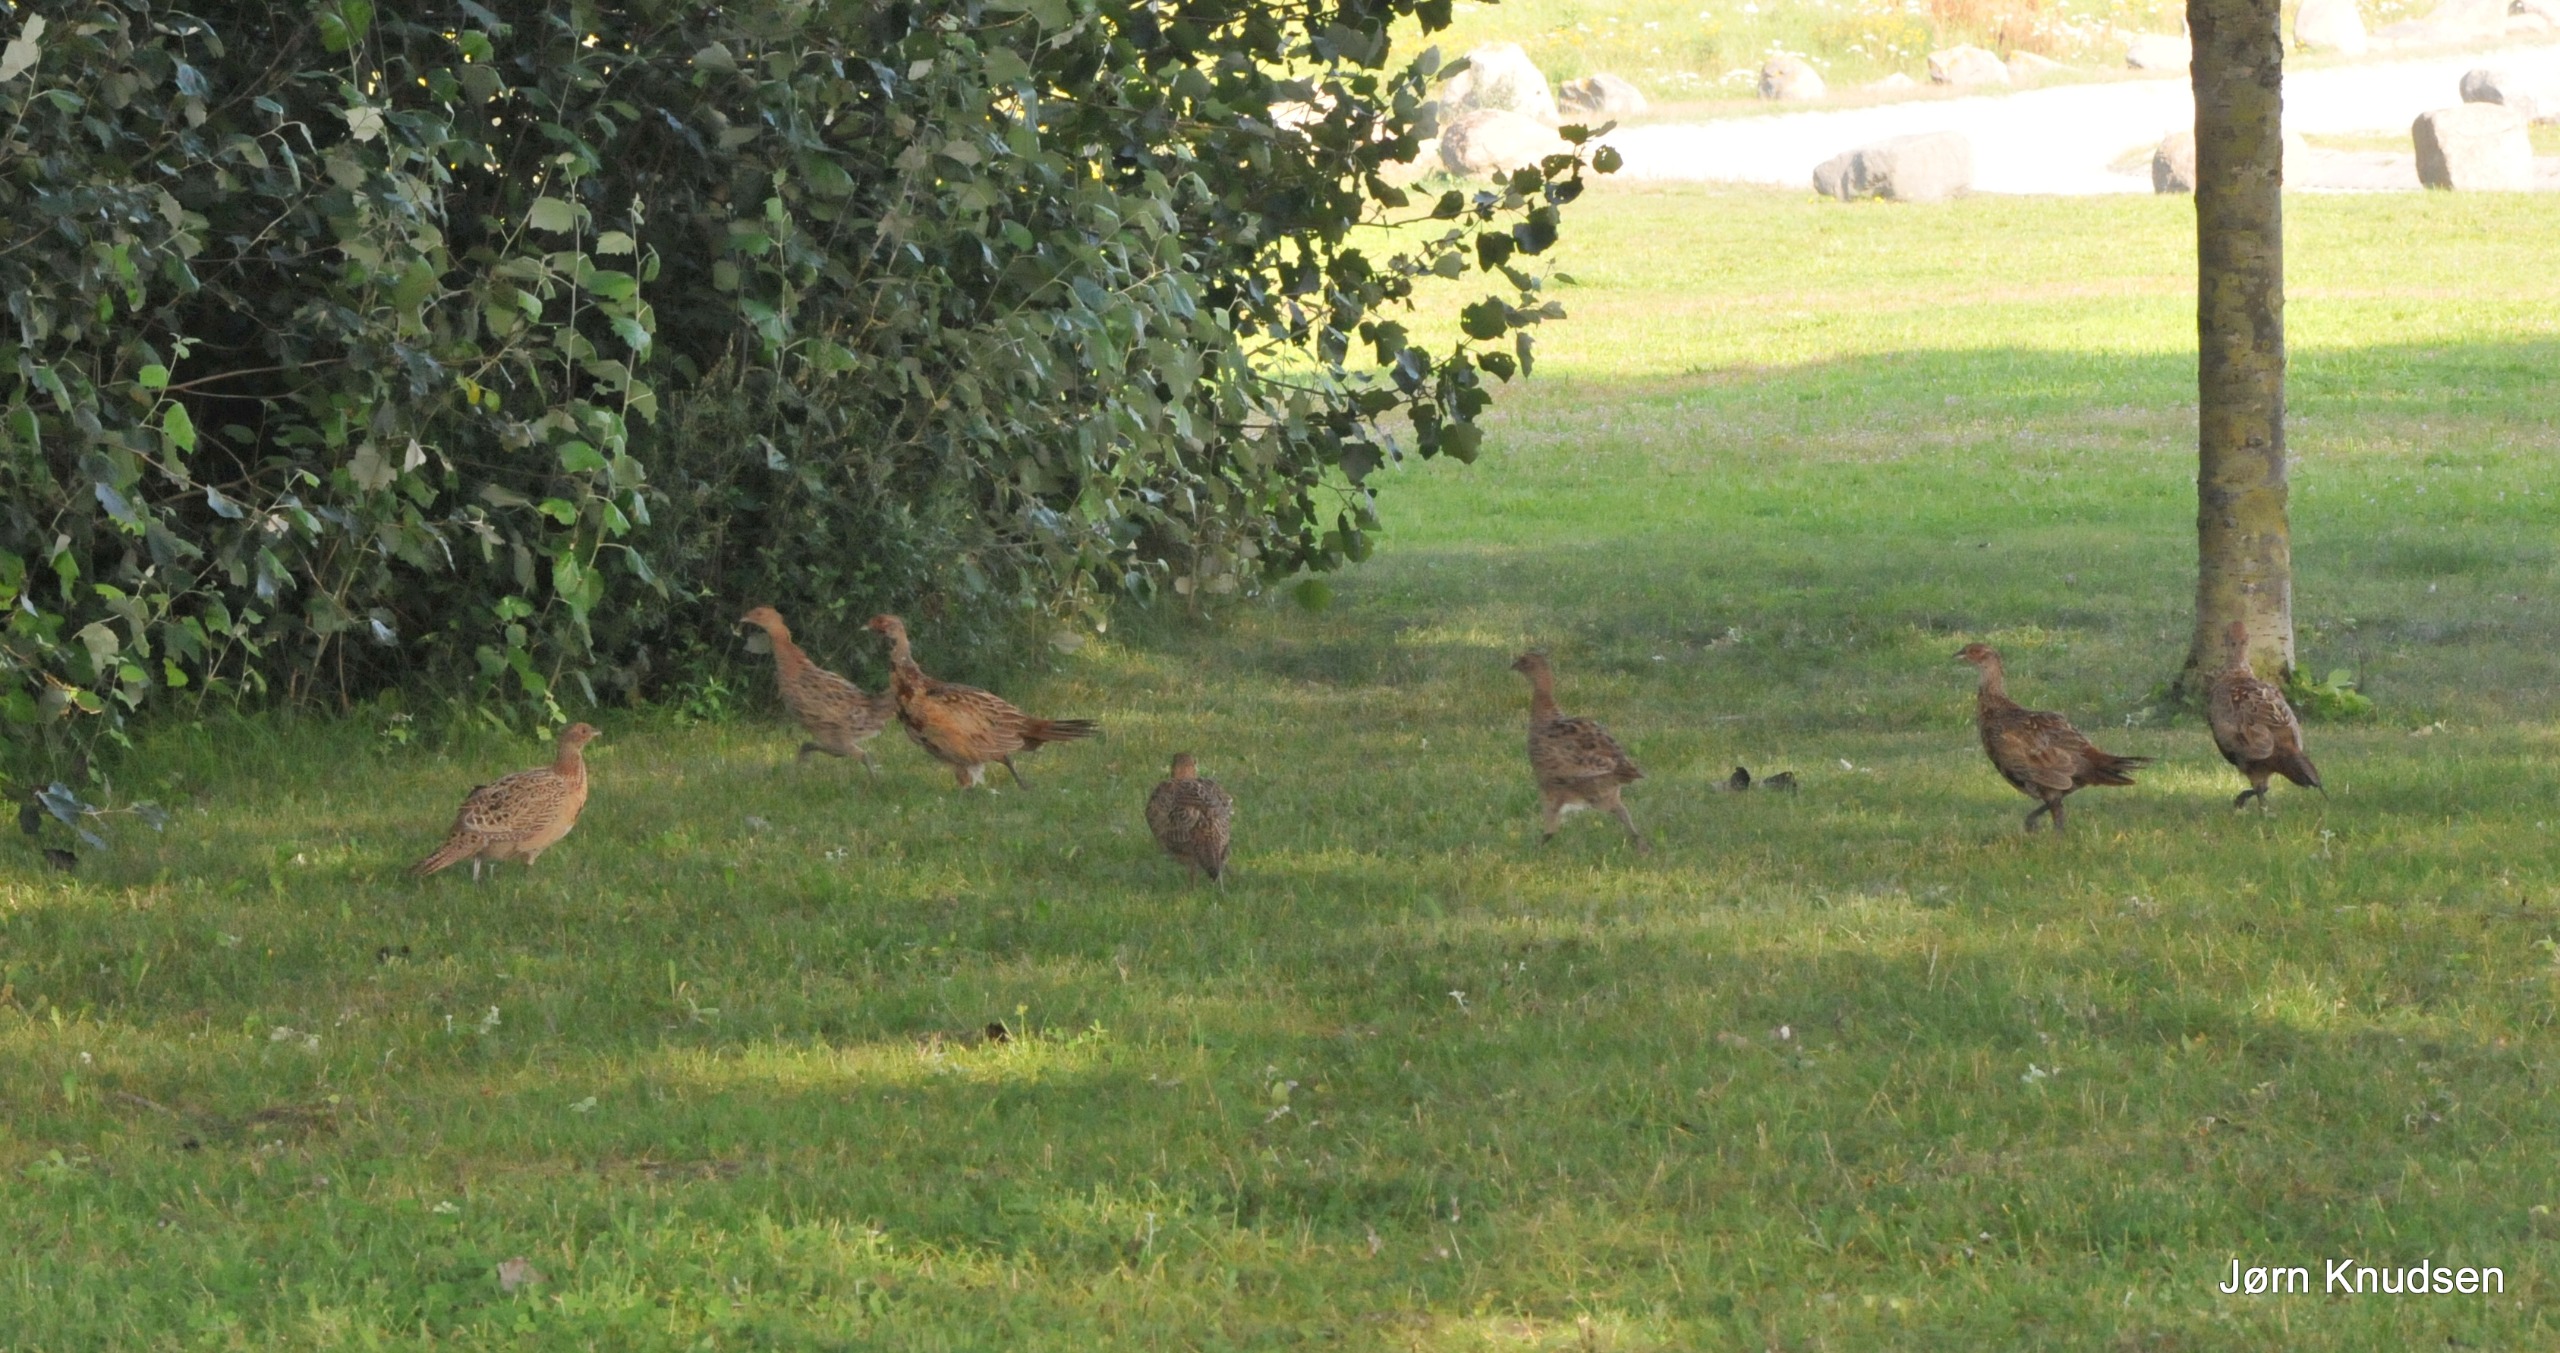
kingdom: Animalia
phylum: Chordata
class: Aves
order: Galliformes
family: Phasianidae
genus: Phasianus
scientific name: Phasianus colchicus
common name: Fasan
